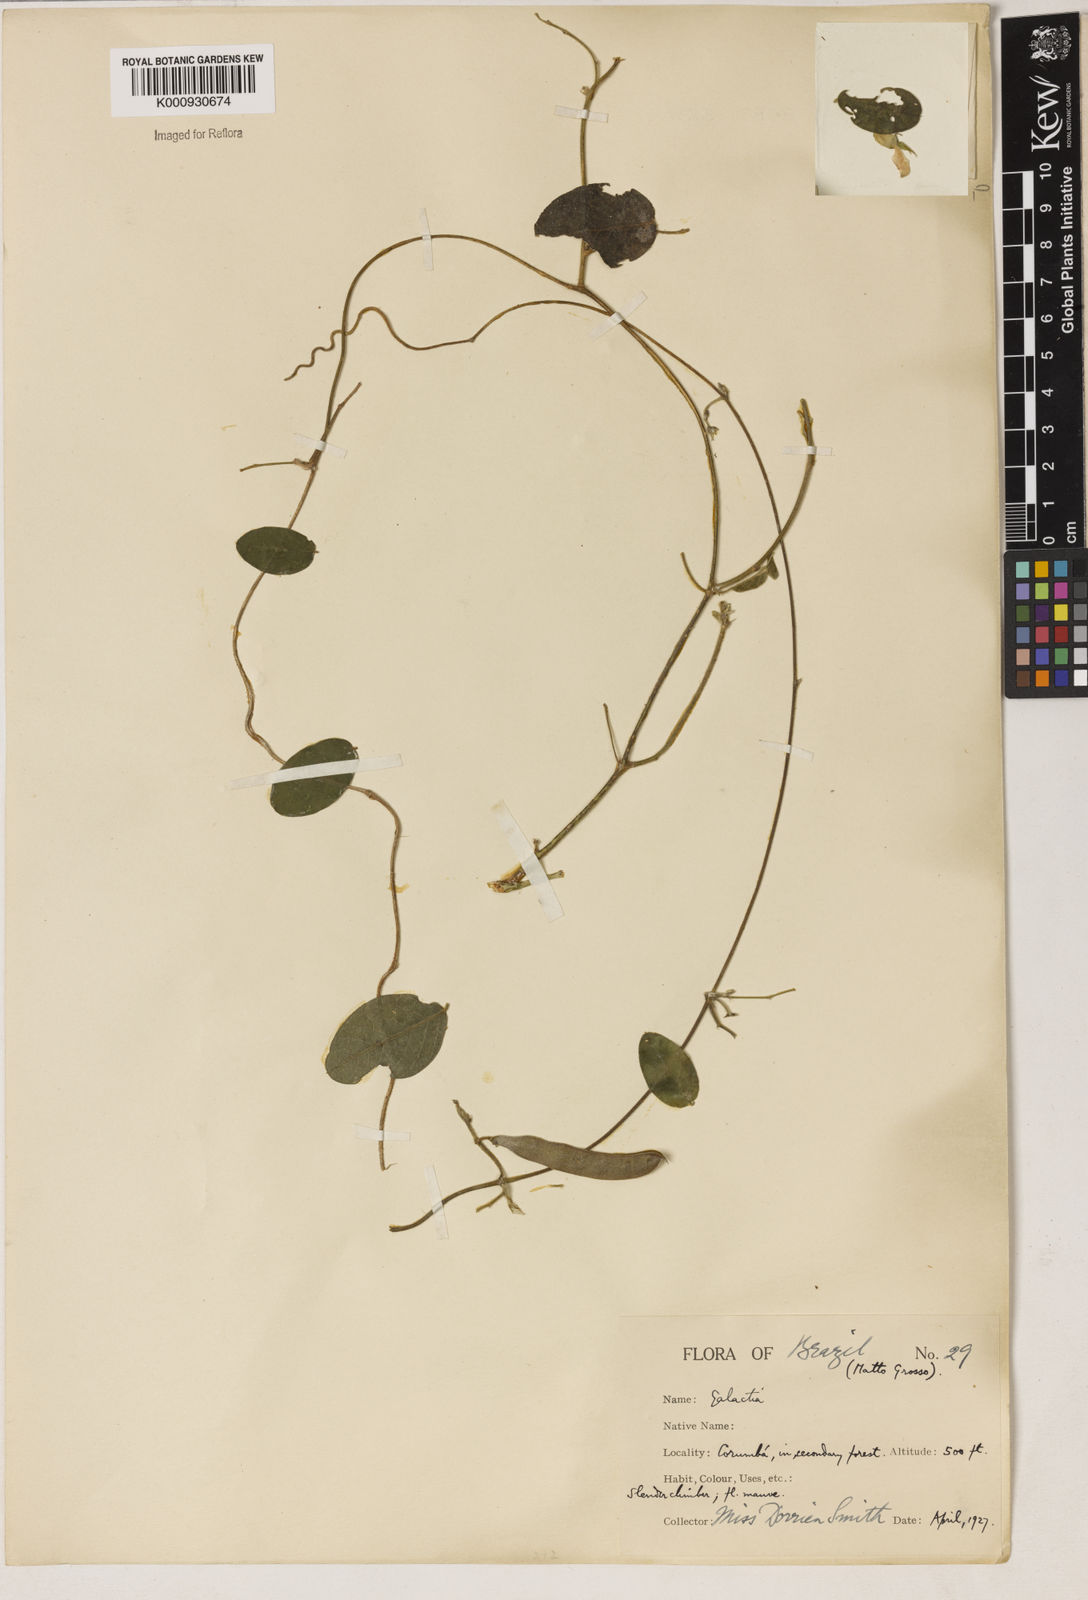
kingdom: Plantae
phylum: Tracheophyta
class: Magnoliopsida
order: Fabales
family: Fabaceae
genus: Galactia
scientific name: Galactia
